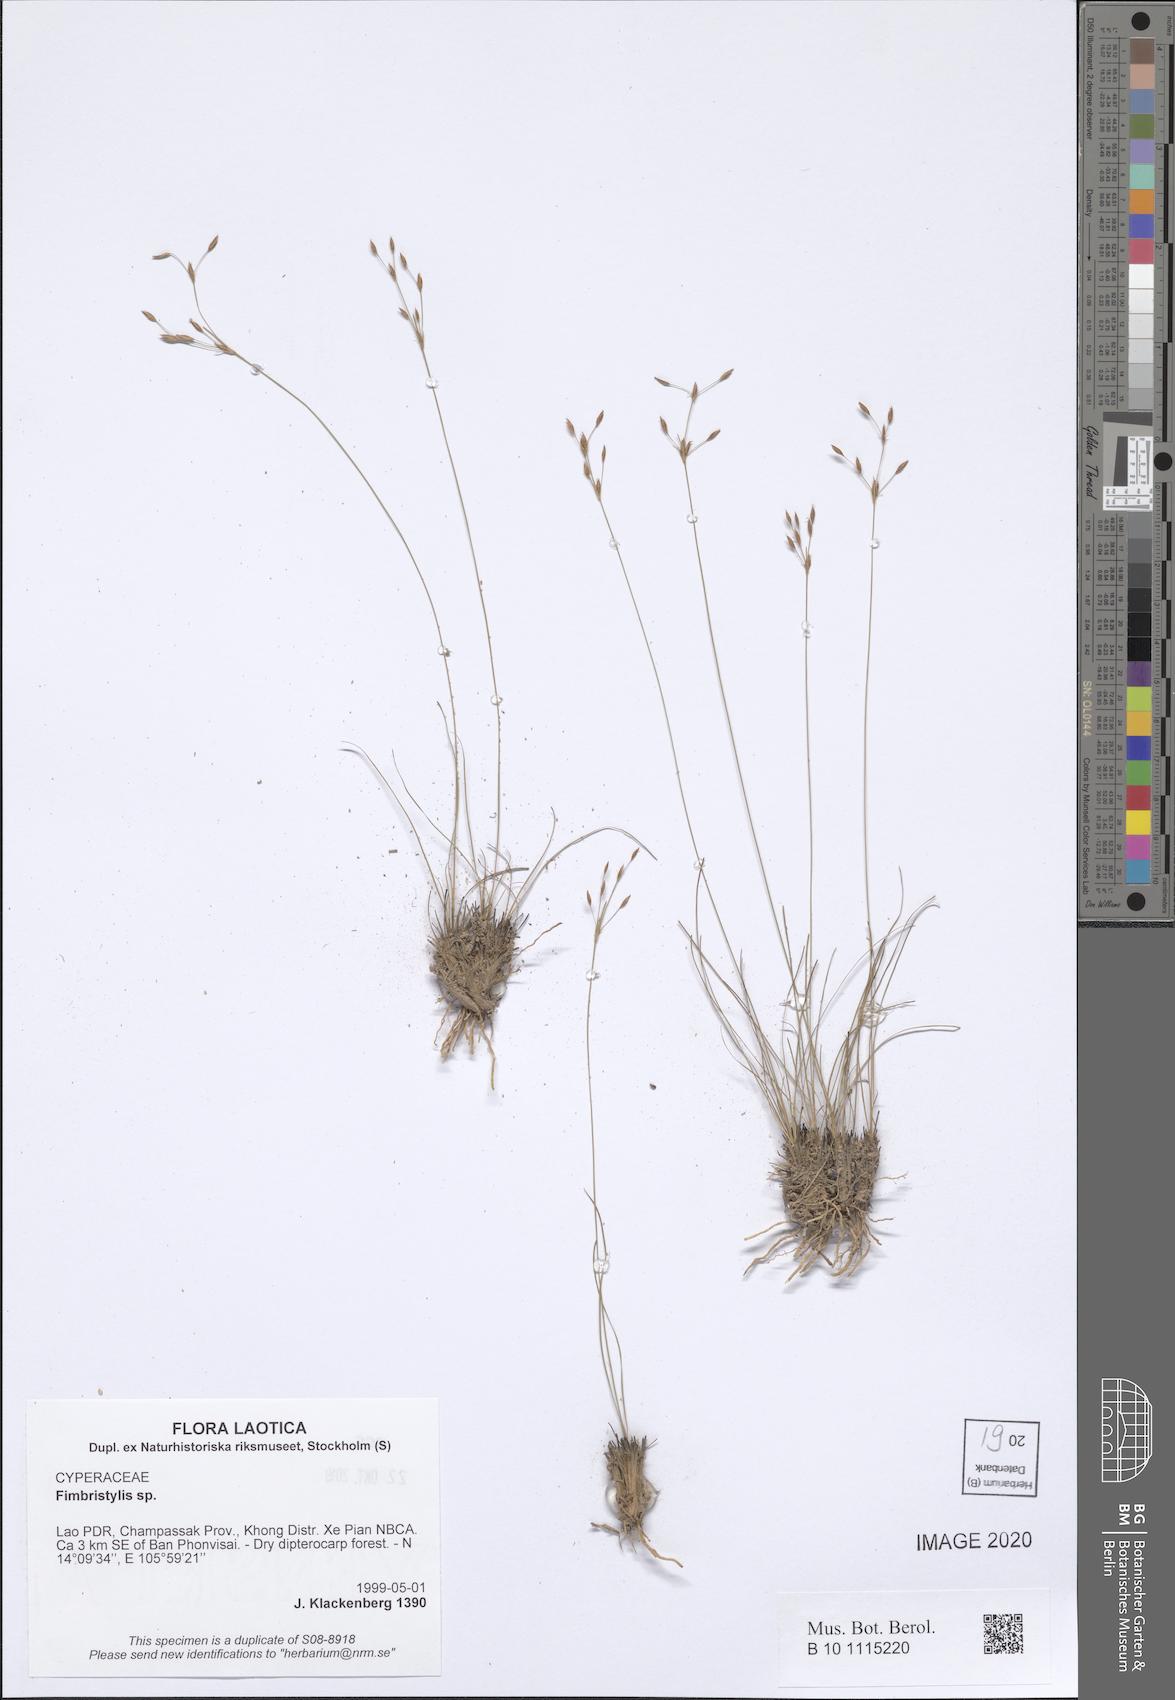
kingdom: Plantae
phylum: Tracheophyta
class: Liliopsida
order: Poales
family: Cyperaceae
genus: Fimbristylis
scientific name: Fimbristylis
